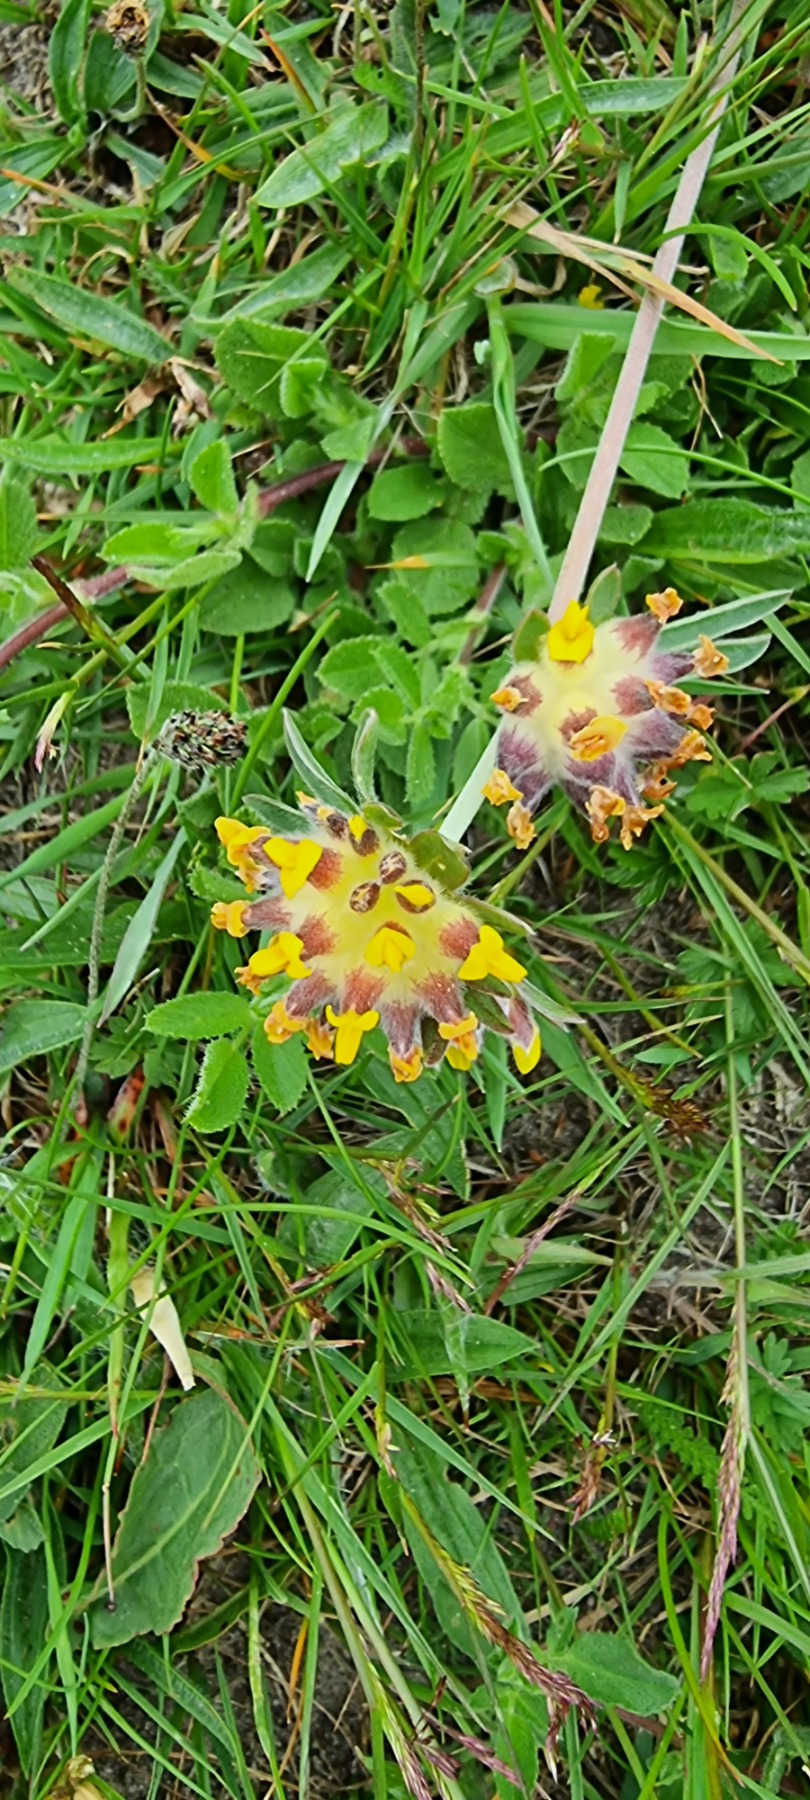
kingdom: Plantae
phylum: Tracheophyta
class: Magnoliopsida
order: Fabales
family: Fabaceae
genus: Anthyllis
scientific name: Anthyllis vulneraria
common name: Rundbælg
